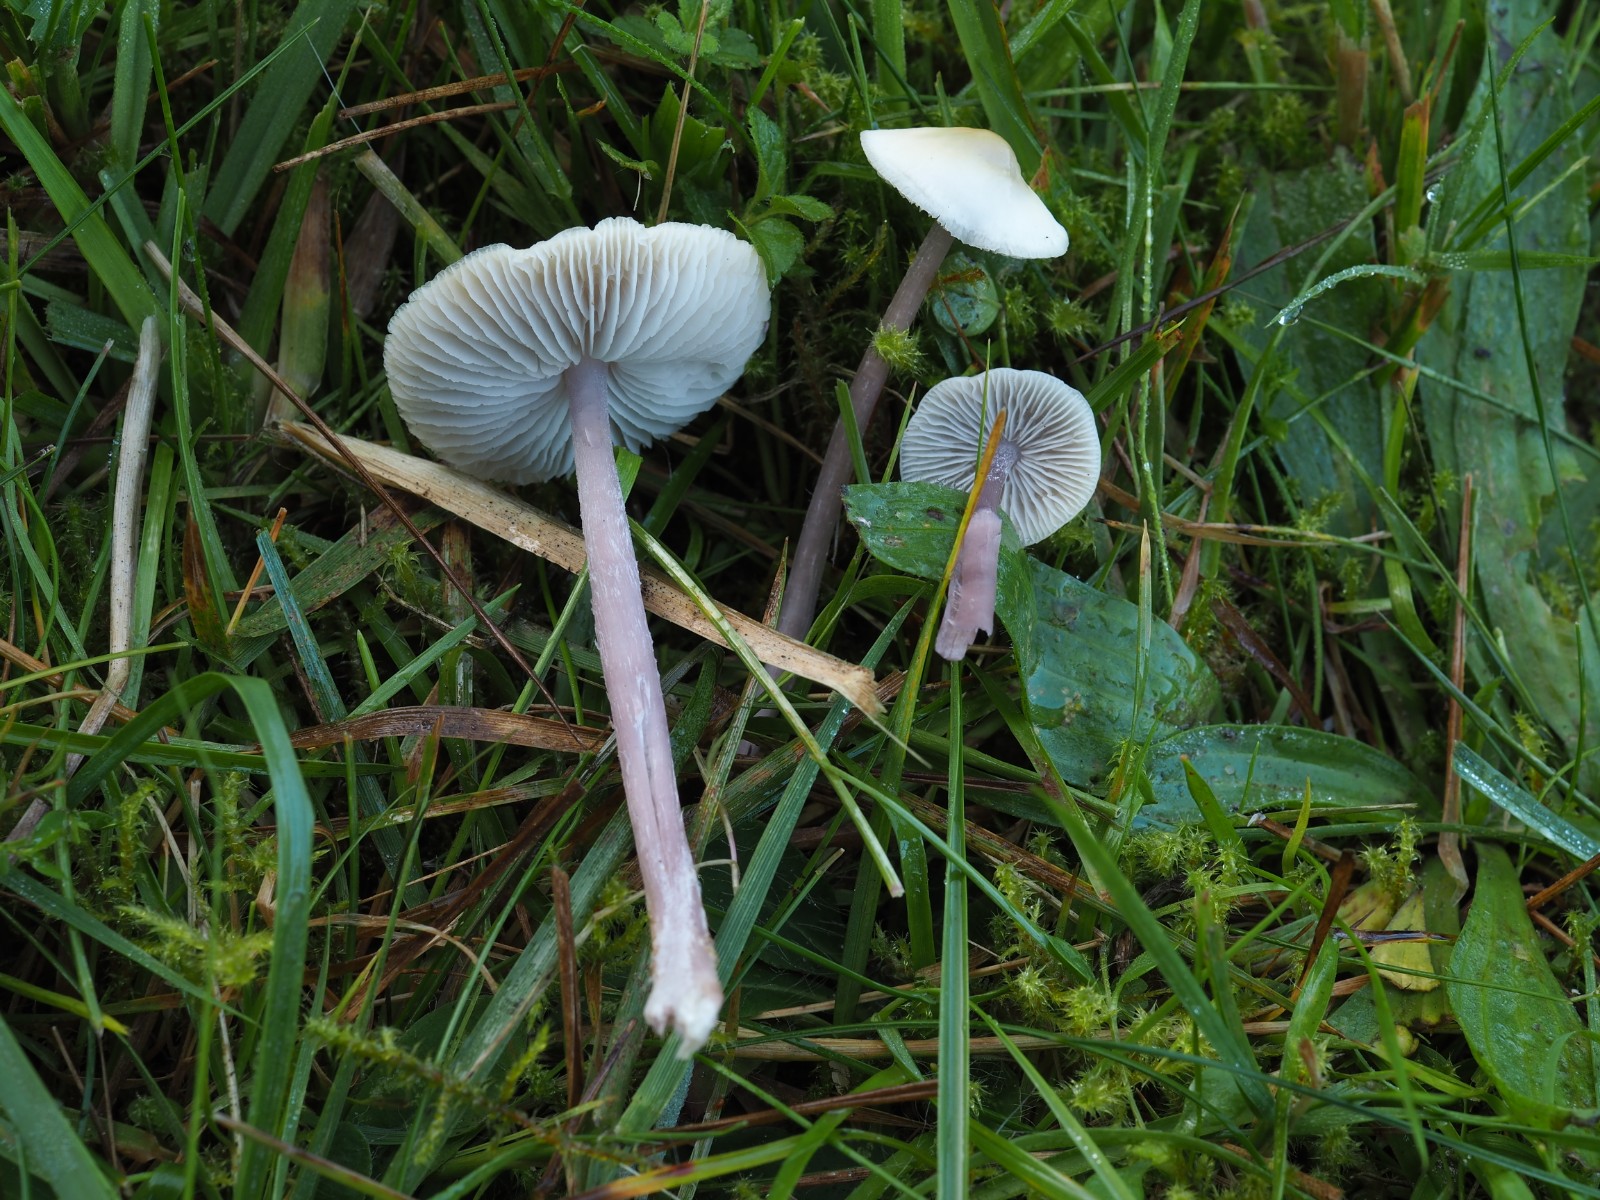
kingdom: Fungi
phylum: Basidiomycota
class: Agaricomycetes
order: Agaricales
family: Mycenaceae
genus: Mycena
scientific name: Mycena luteovariegata
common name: lillagul huesvamp
